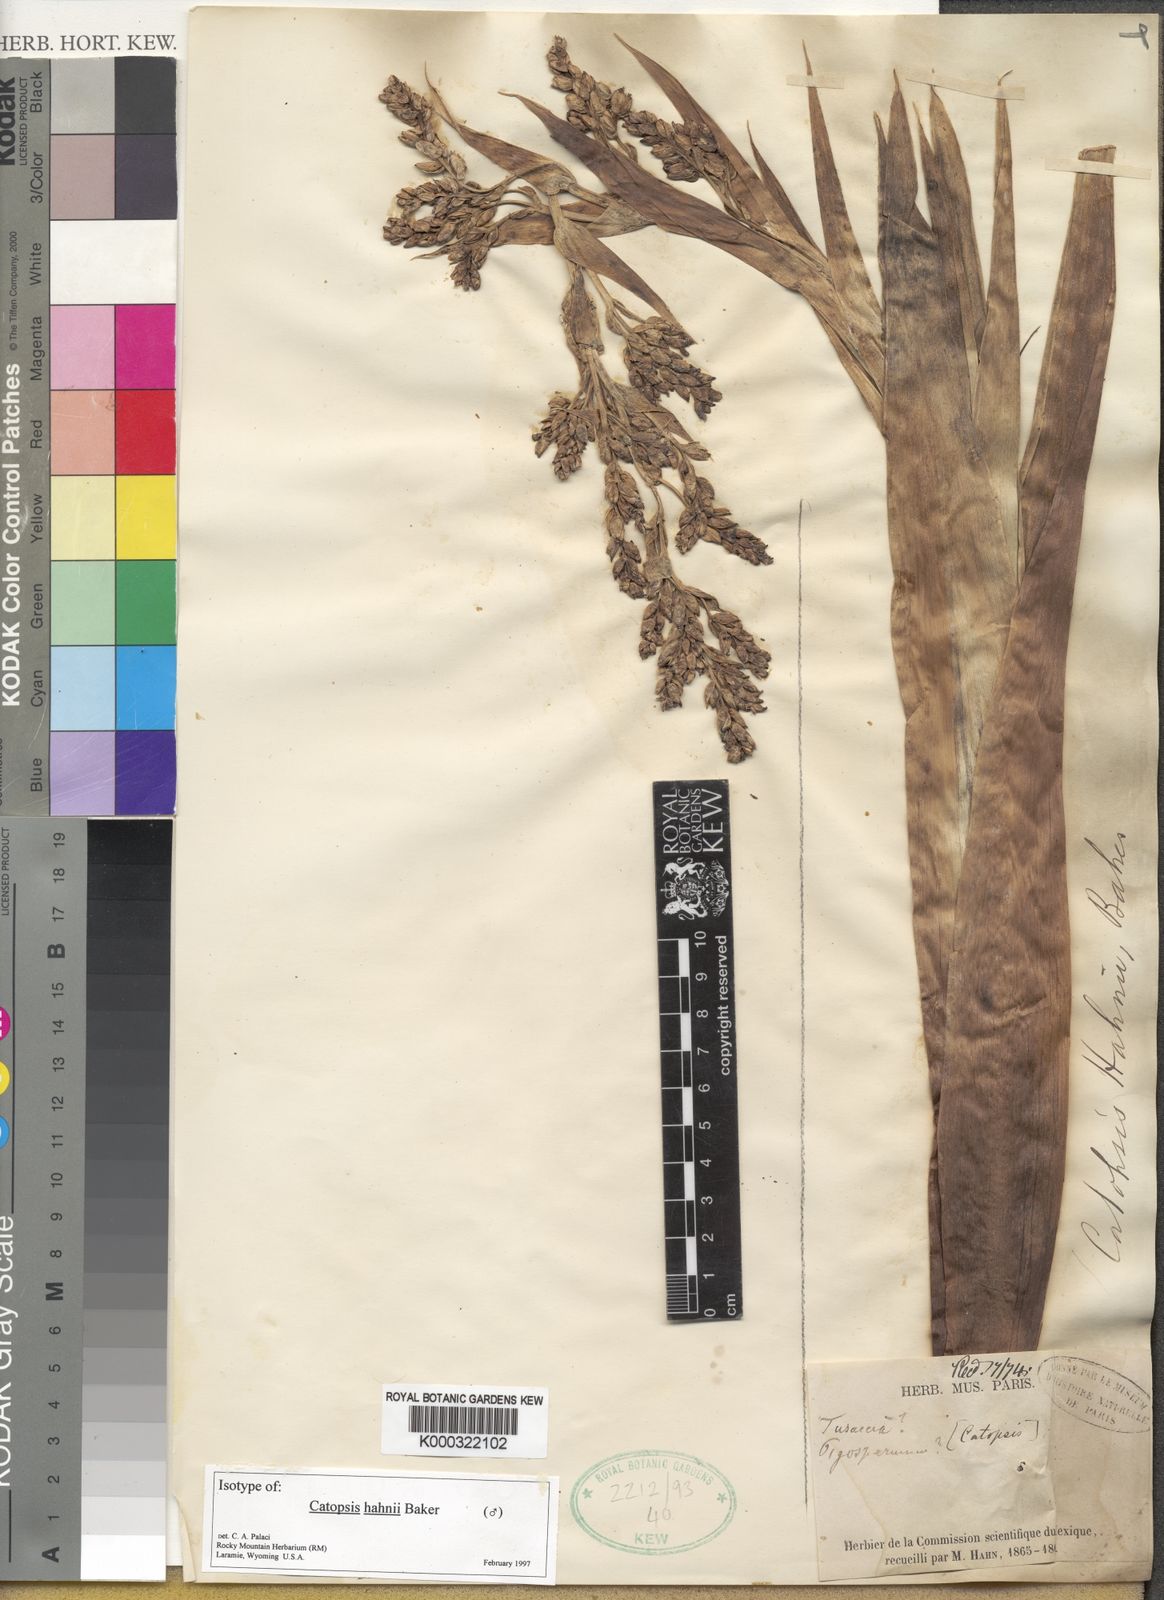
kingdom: Plantae
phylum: Tracheophyta
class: Liliopsida
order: Poales
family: Bromeliaceae
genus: Catopsis
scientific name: Catopsis paniculata
